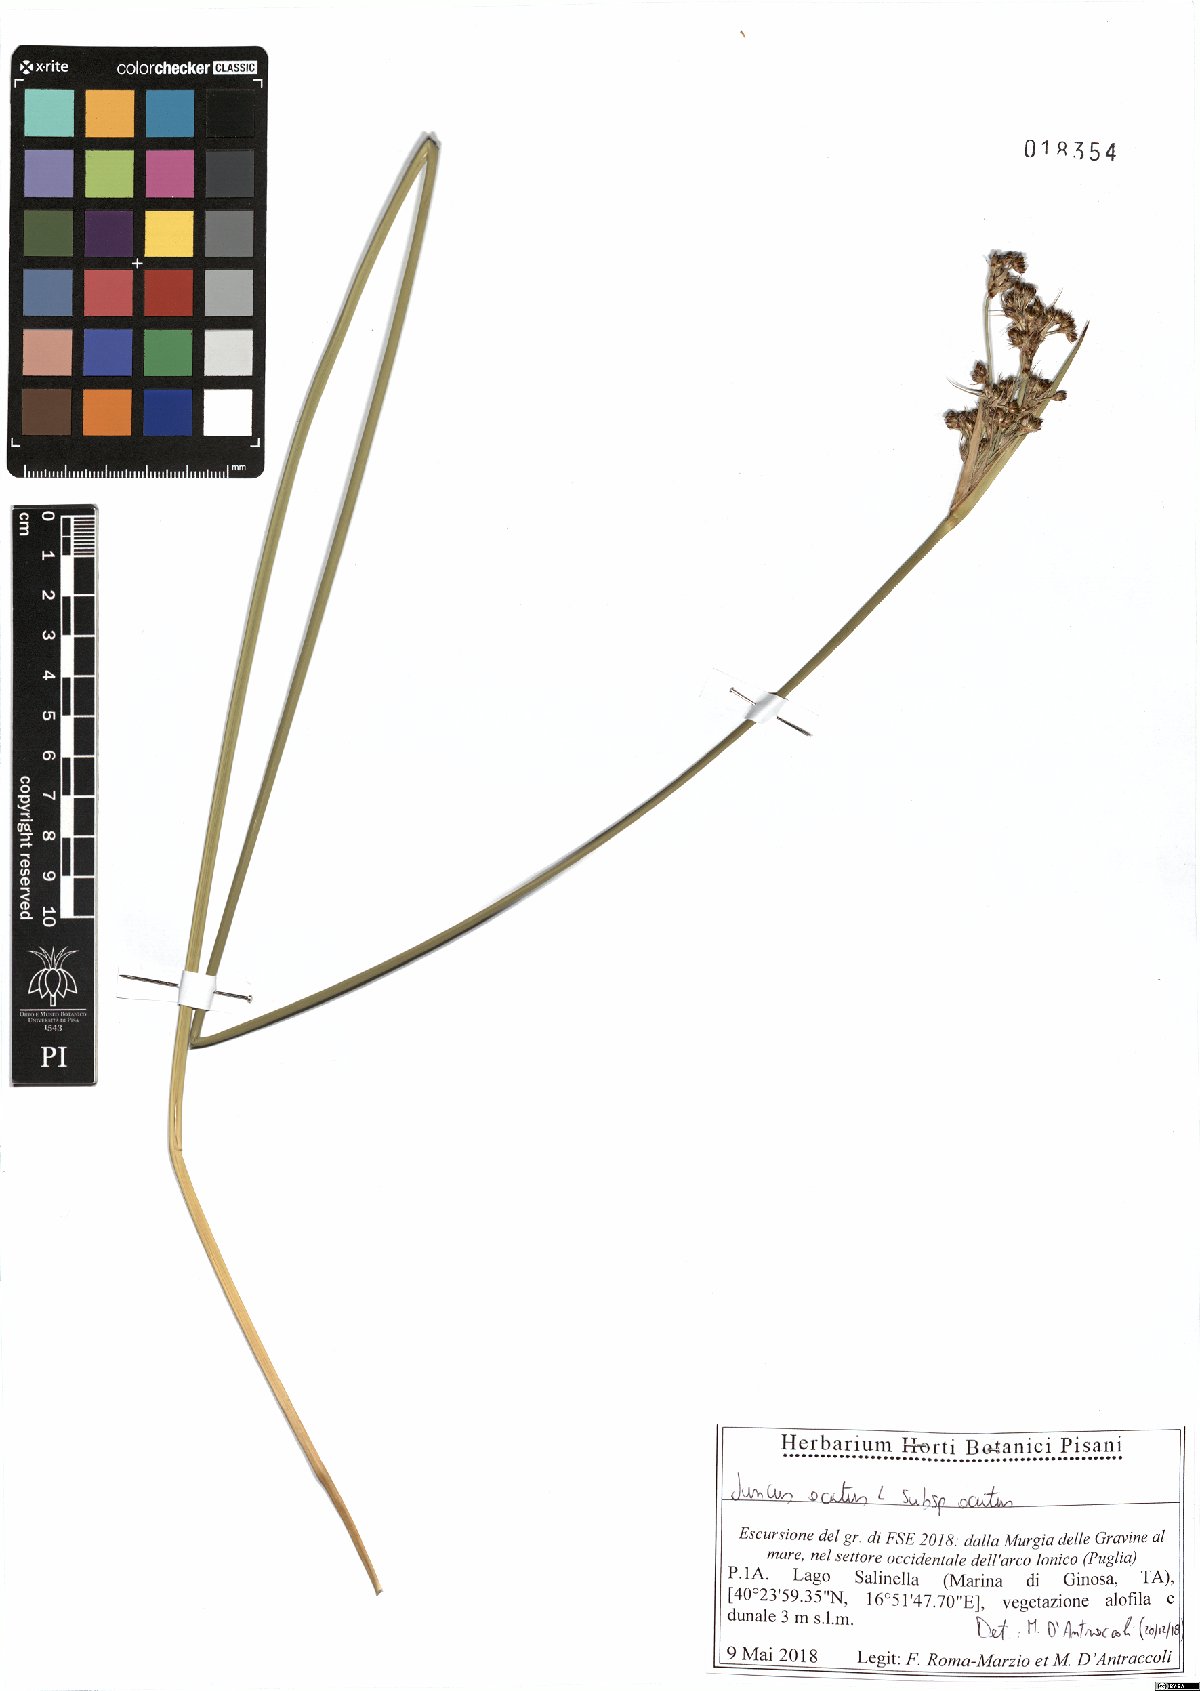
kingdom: Plantae
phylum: Tracheophyta
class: Liliopsida
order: Poales
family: Juncaceae
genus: Juncus
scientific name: Juncus acutus
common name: Sharp rush
